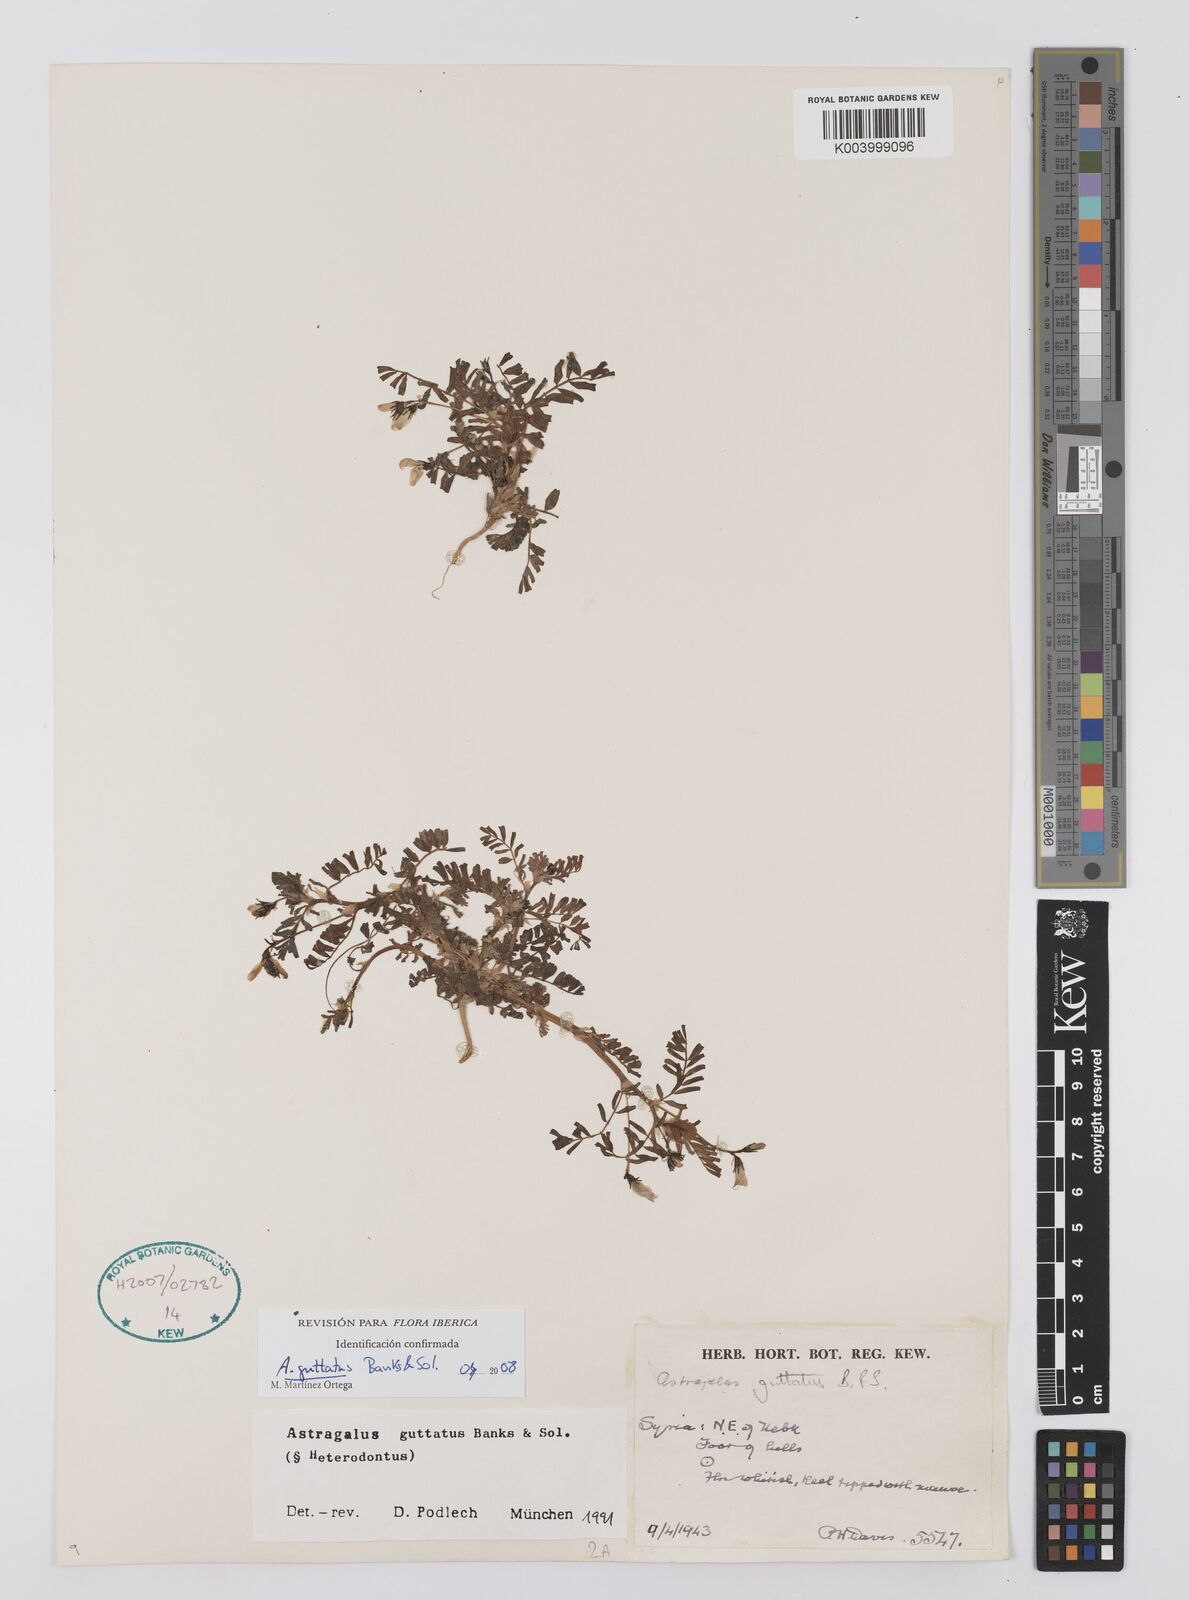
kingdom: Plantae
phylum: Tracheophyta
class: Magnoliopsida
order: Fabales
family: Fabaceae
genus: Astragalus
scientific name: Astragalus guttatus
